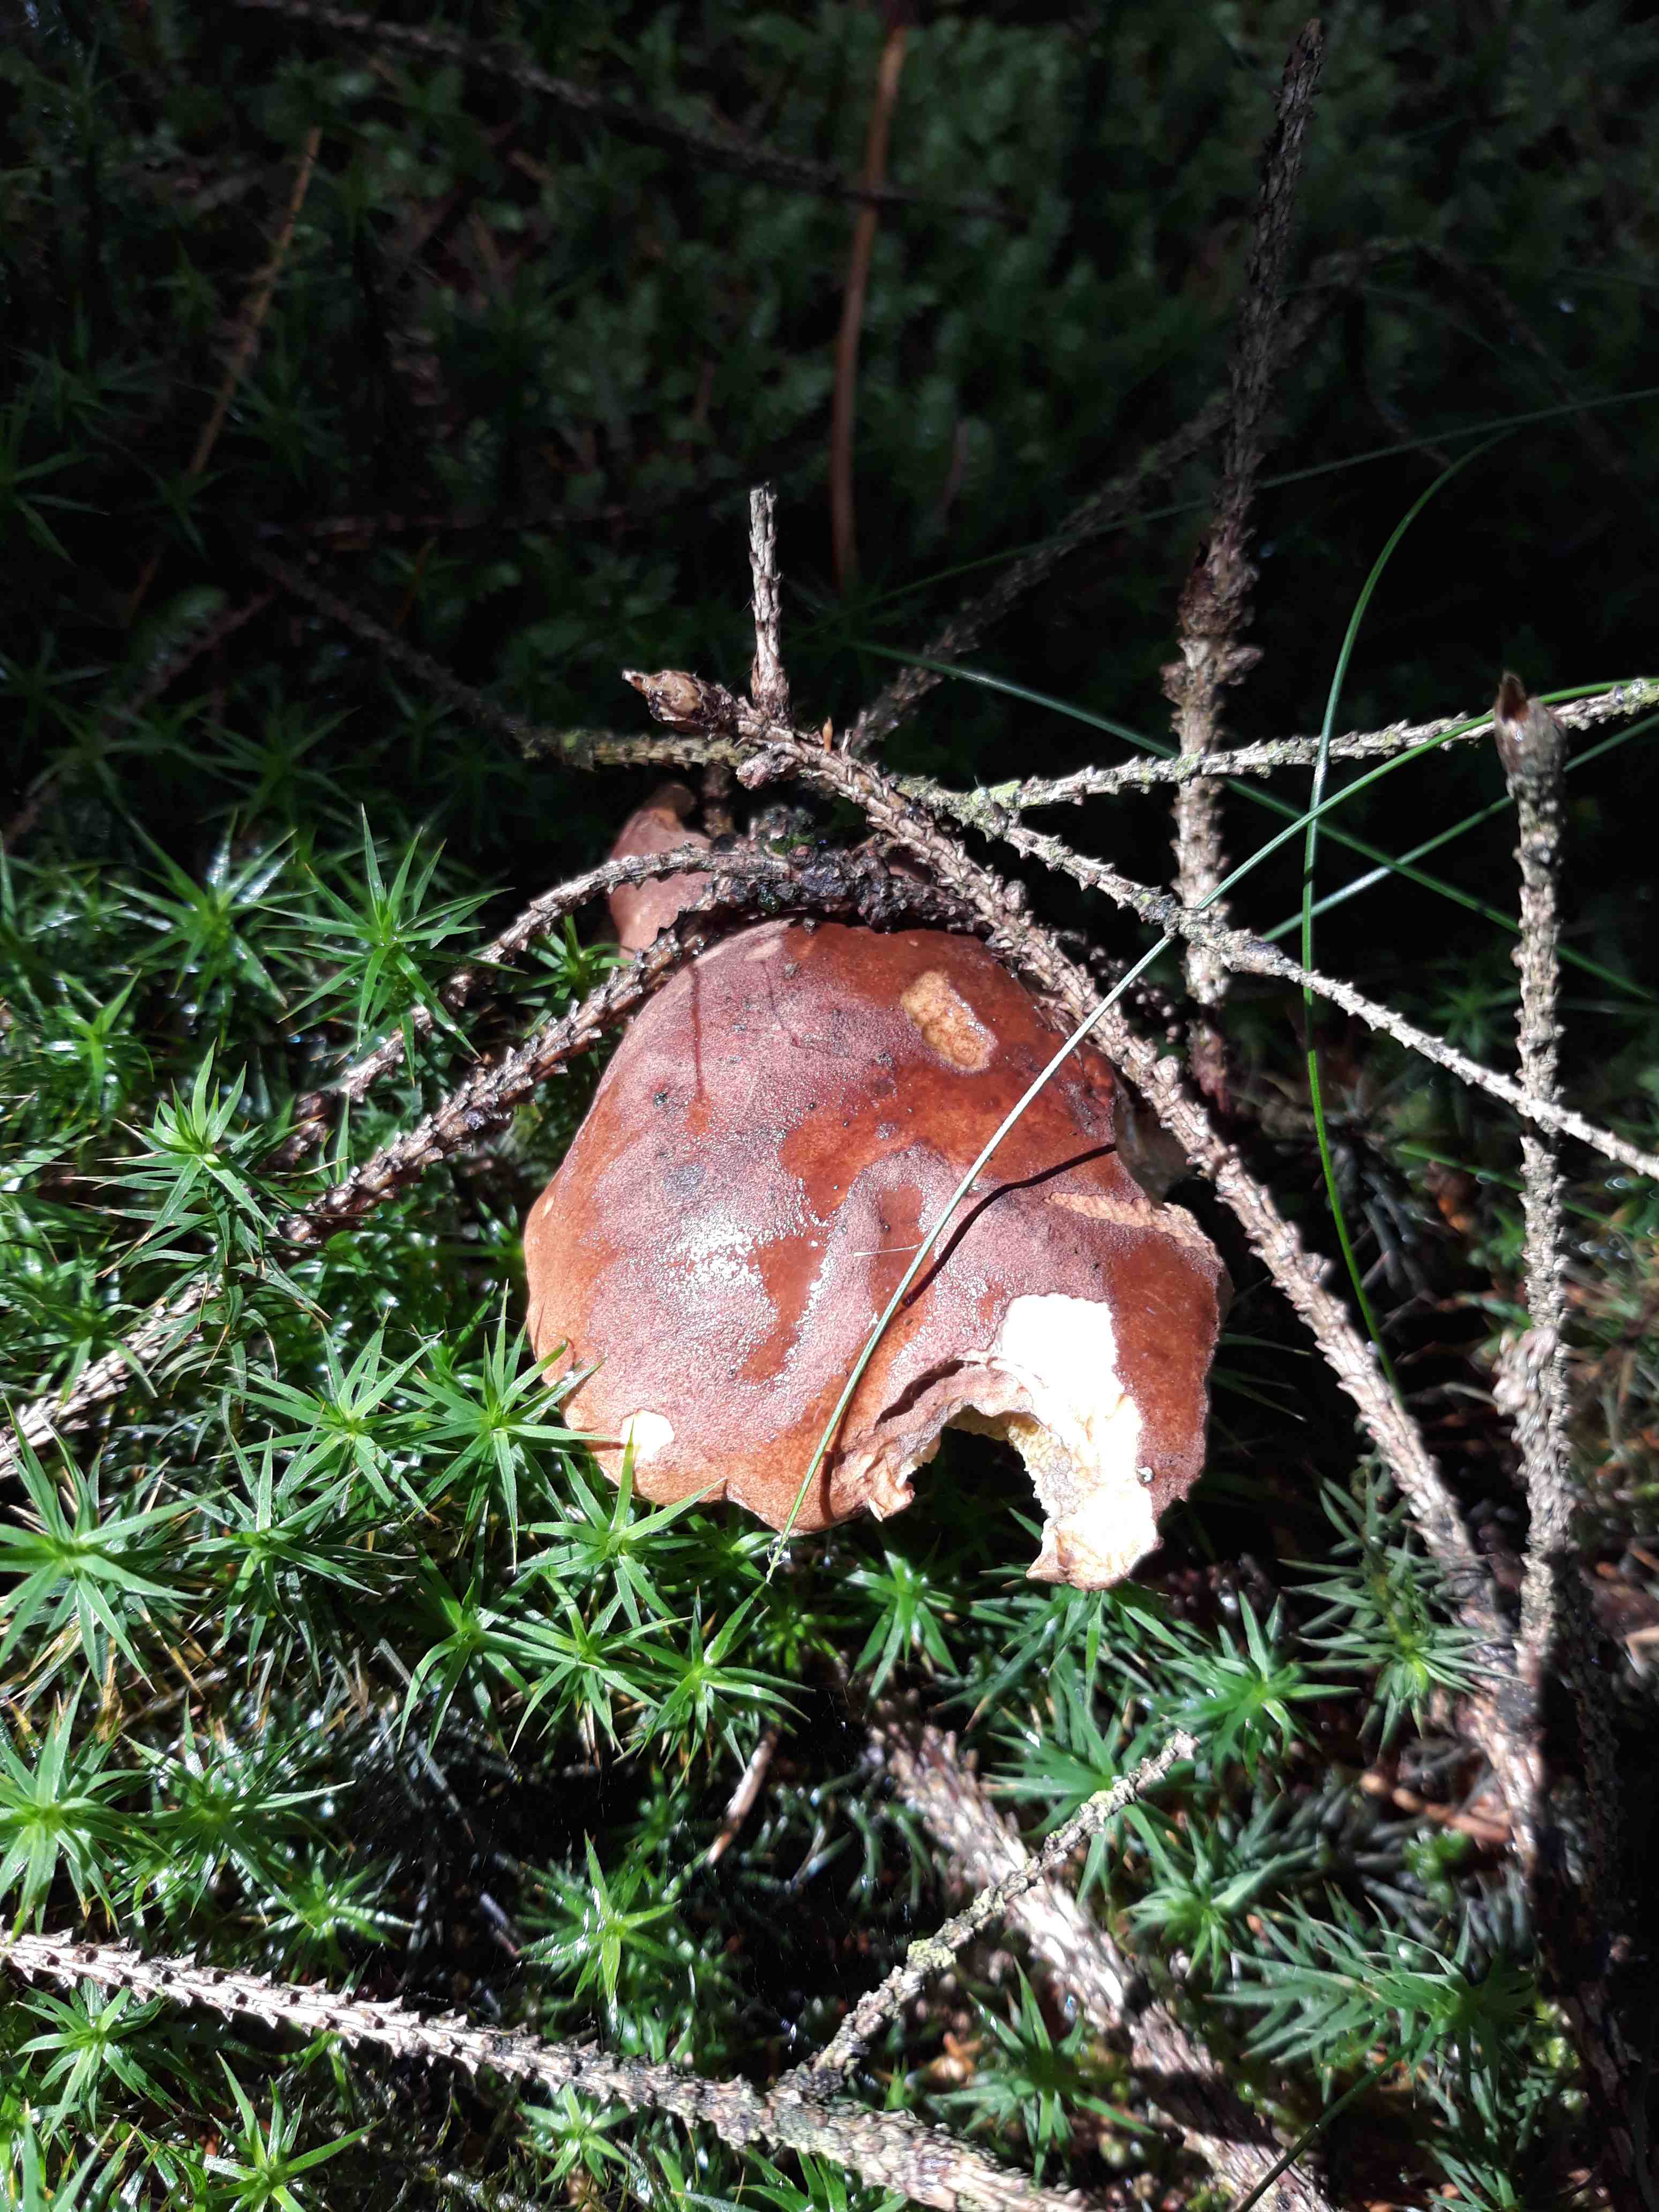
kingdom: Fungi
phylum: Basidiomycota
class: Agaricomycetes
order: Boletales
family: Boletaceae
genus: Imleria
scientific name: Imleria badia
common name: brunstokket rørhat
